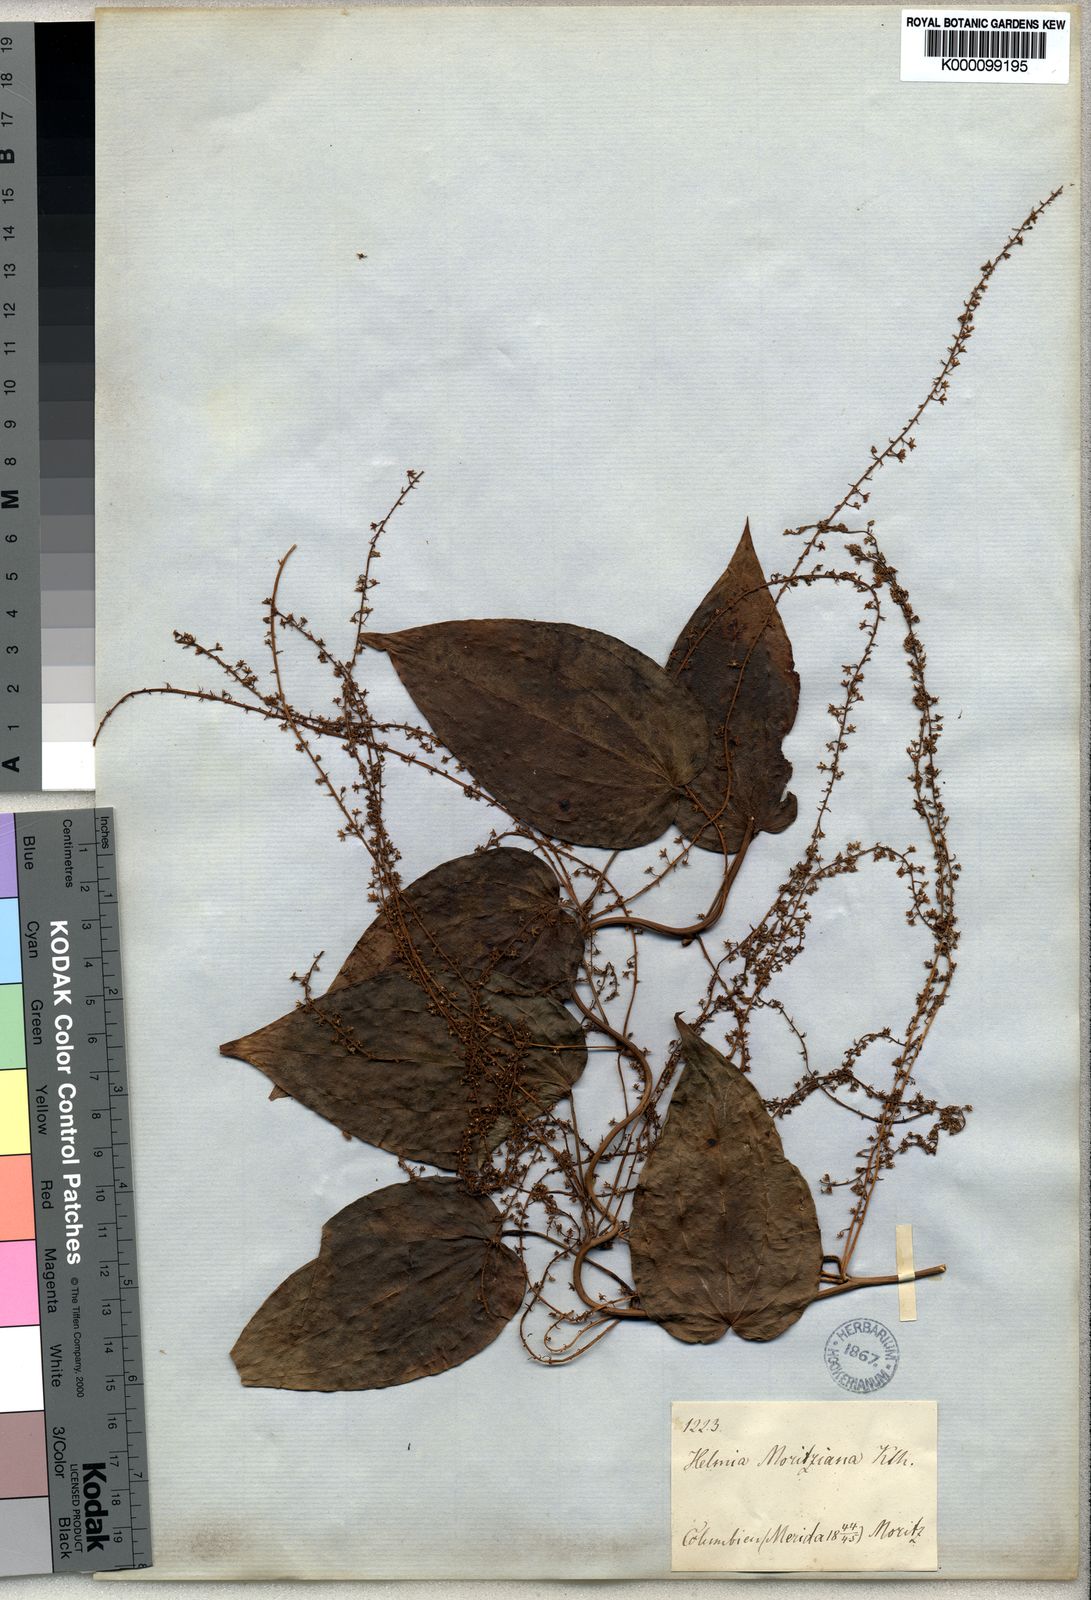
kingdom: Plantae
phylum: Tracheophyta
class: Liliopsida
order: Dioscoreales
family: Dioscoreaceae
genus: Dioscorea
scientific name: Dioscorea moritziana
